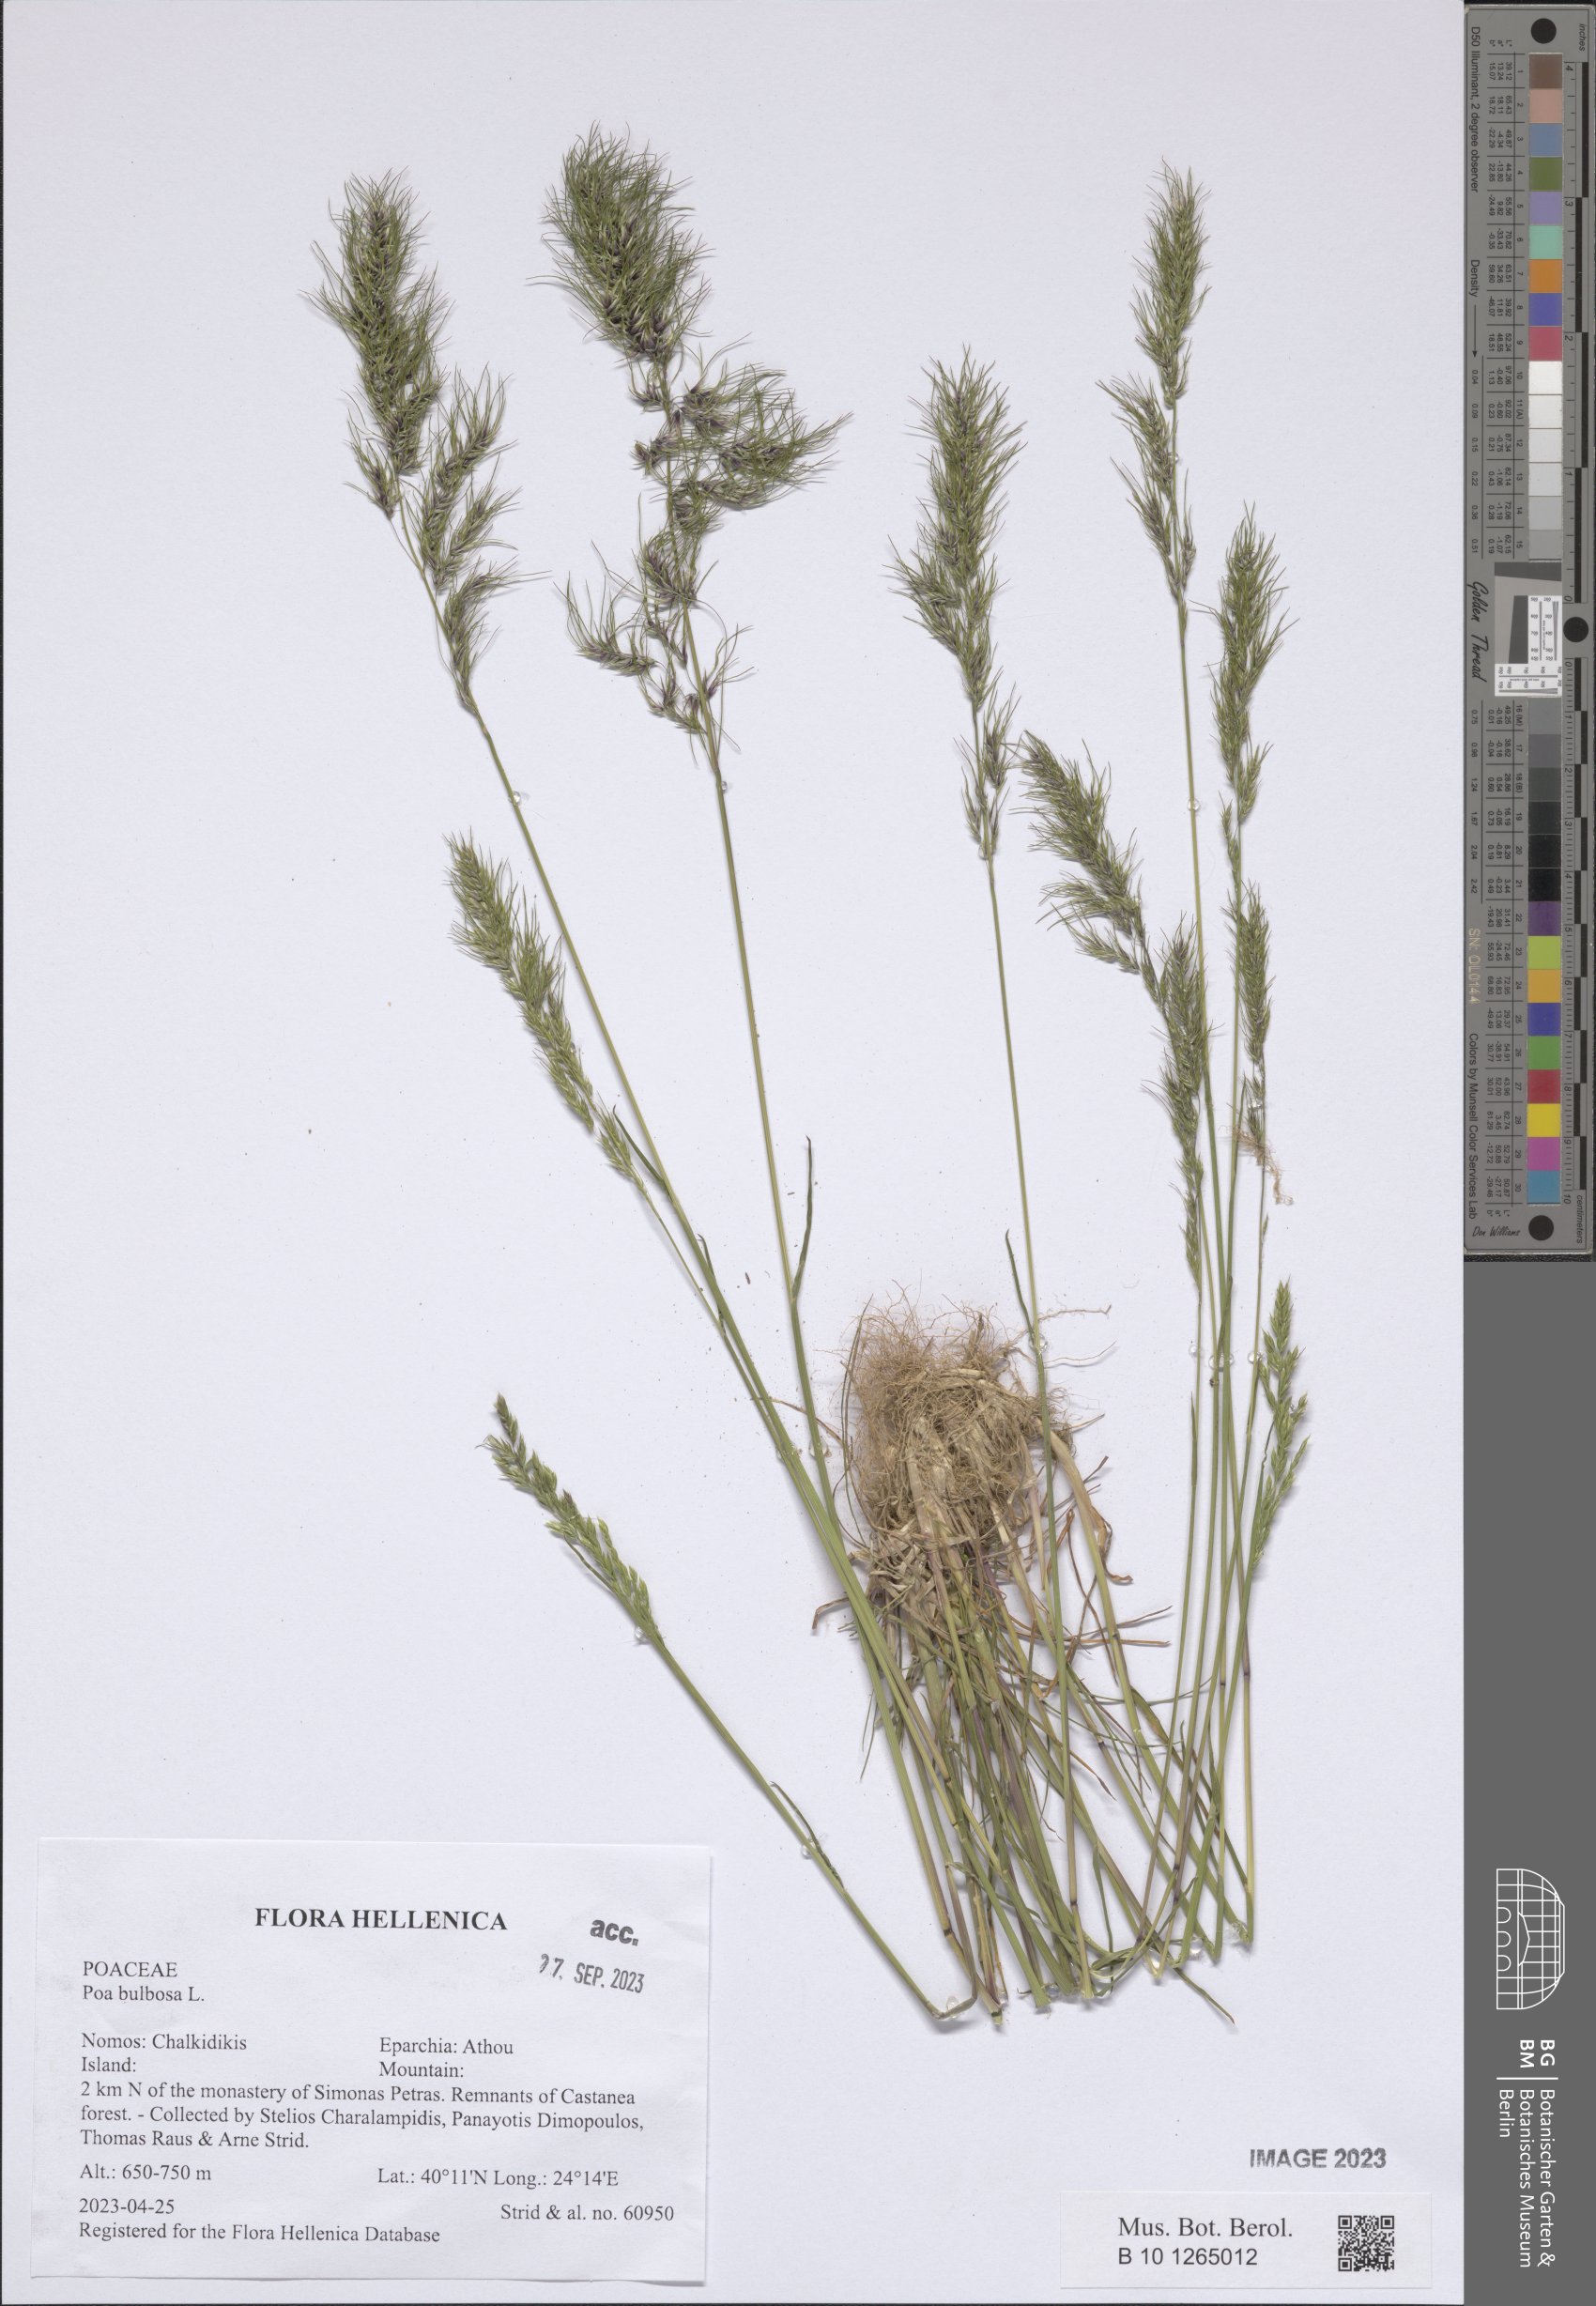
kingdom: Plantae
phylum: Tracheophyta
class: Liliopsida
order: Poales
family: Poaceae
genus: Poa
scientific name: Poa bulbosa
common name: Bulbous bluegrass
